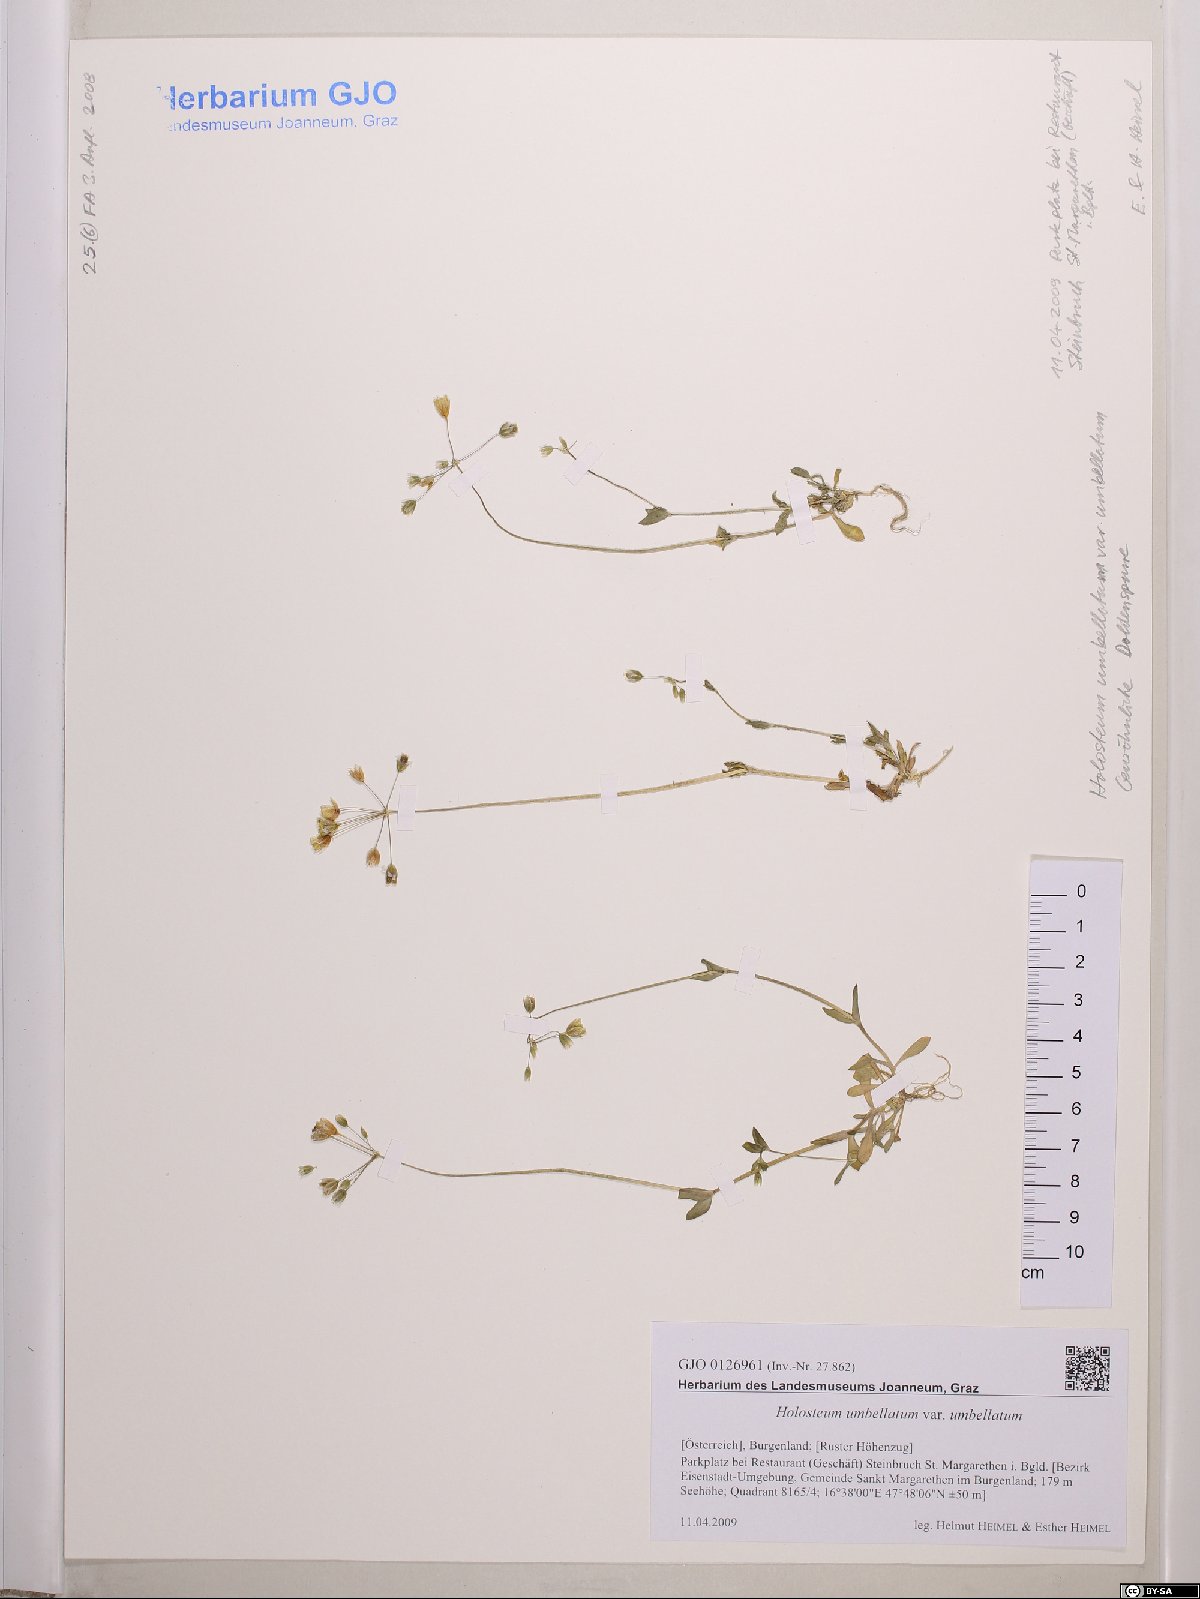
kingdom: Plantae
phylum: Tracheophyta
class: Magnoliopsida
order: Caryophyllales
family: Caryophyllaceae
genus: Holosteum
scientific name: Holosteum umbellatum
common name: Jagged chickweed
